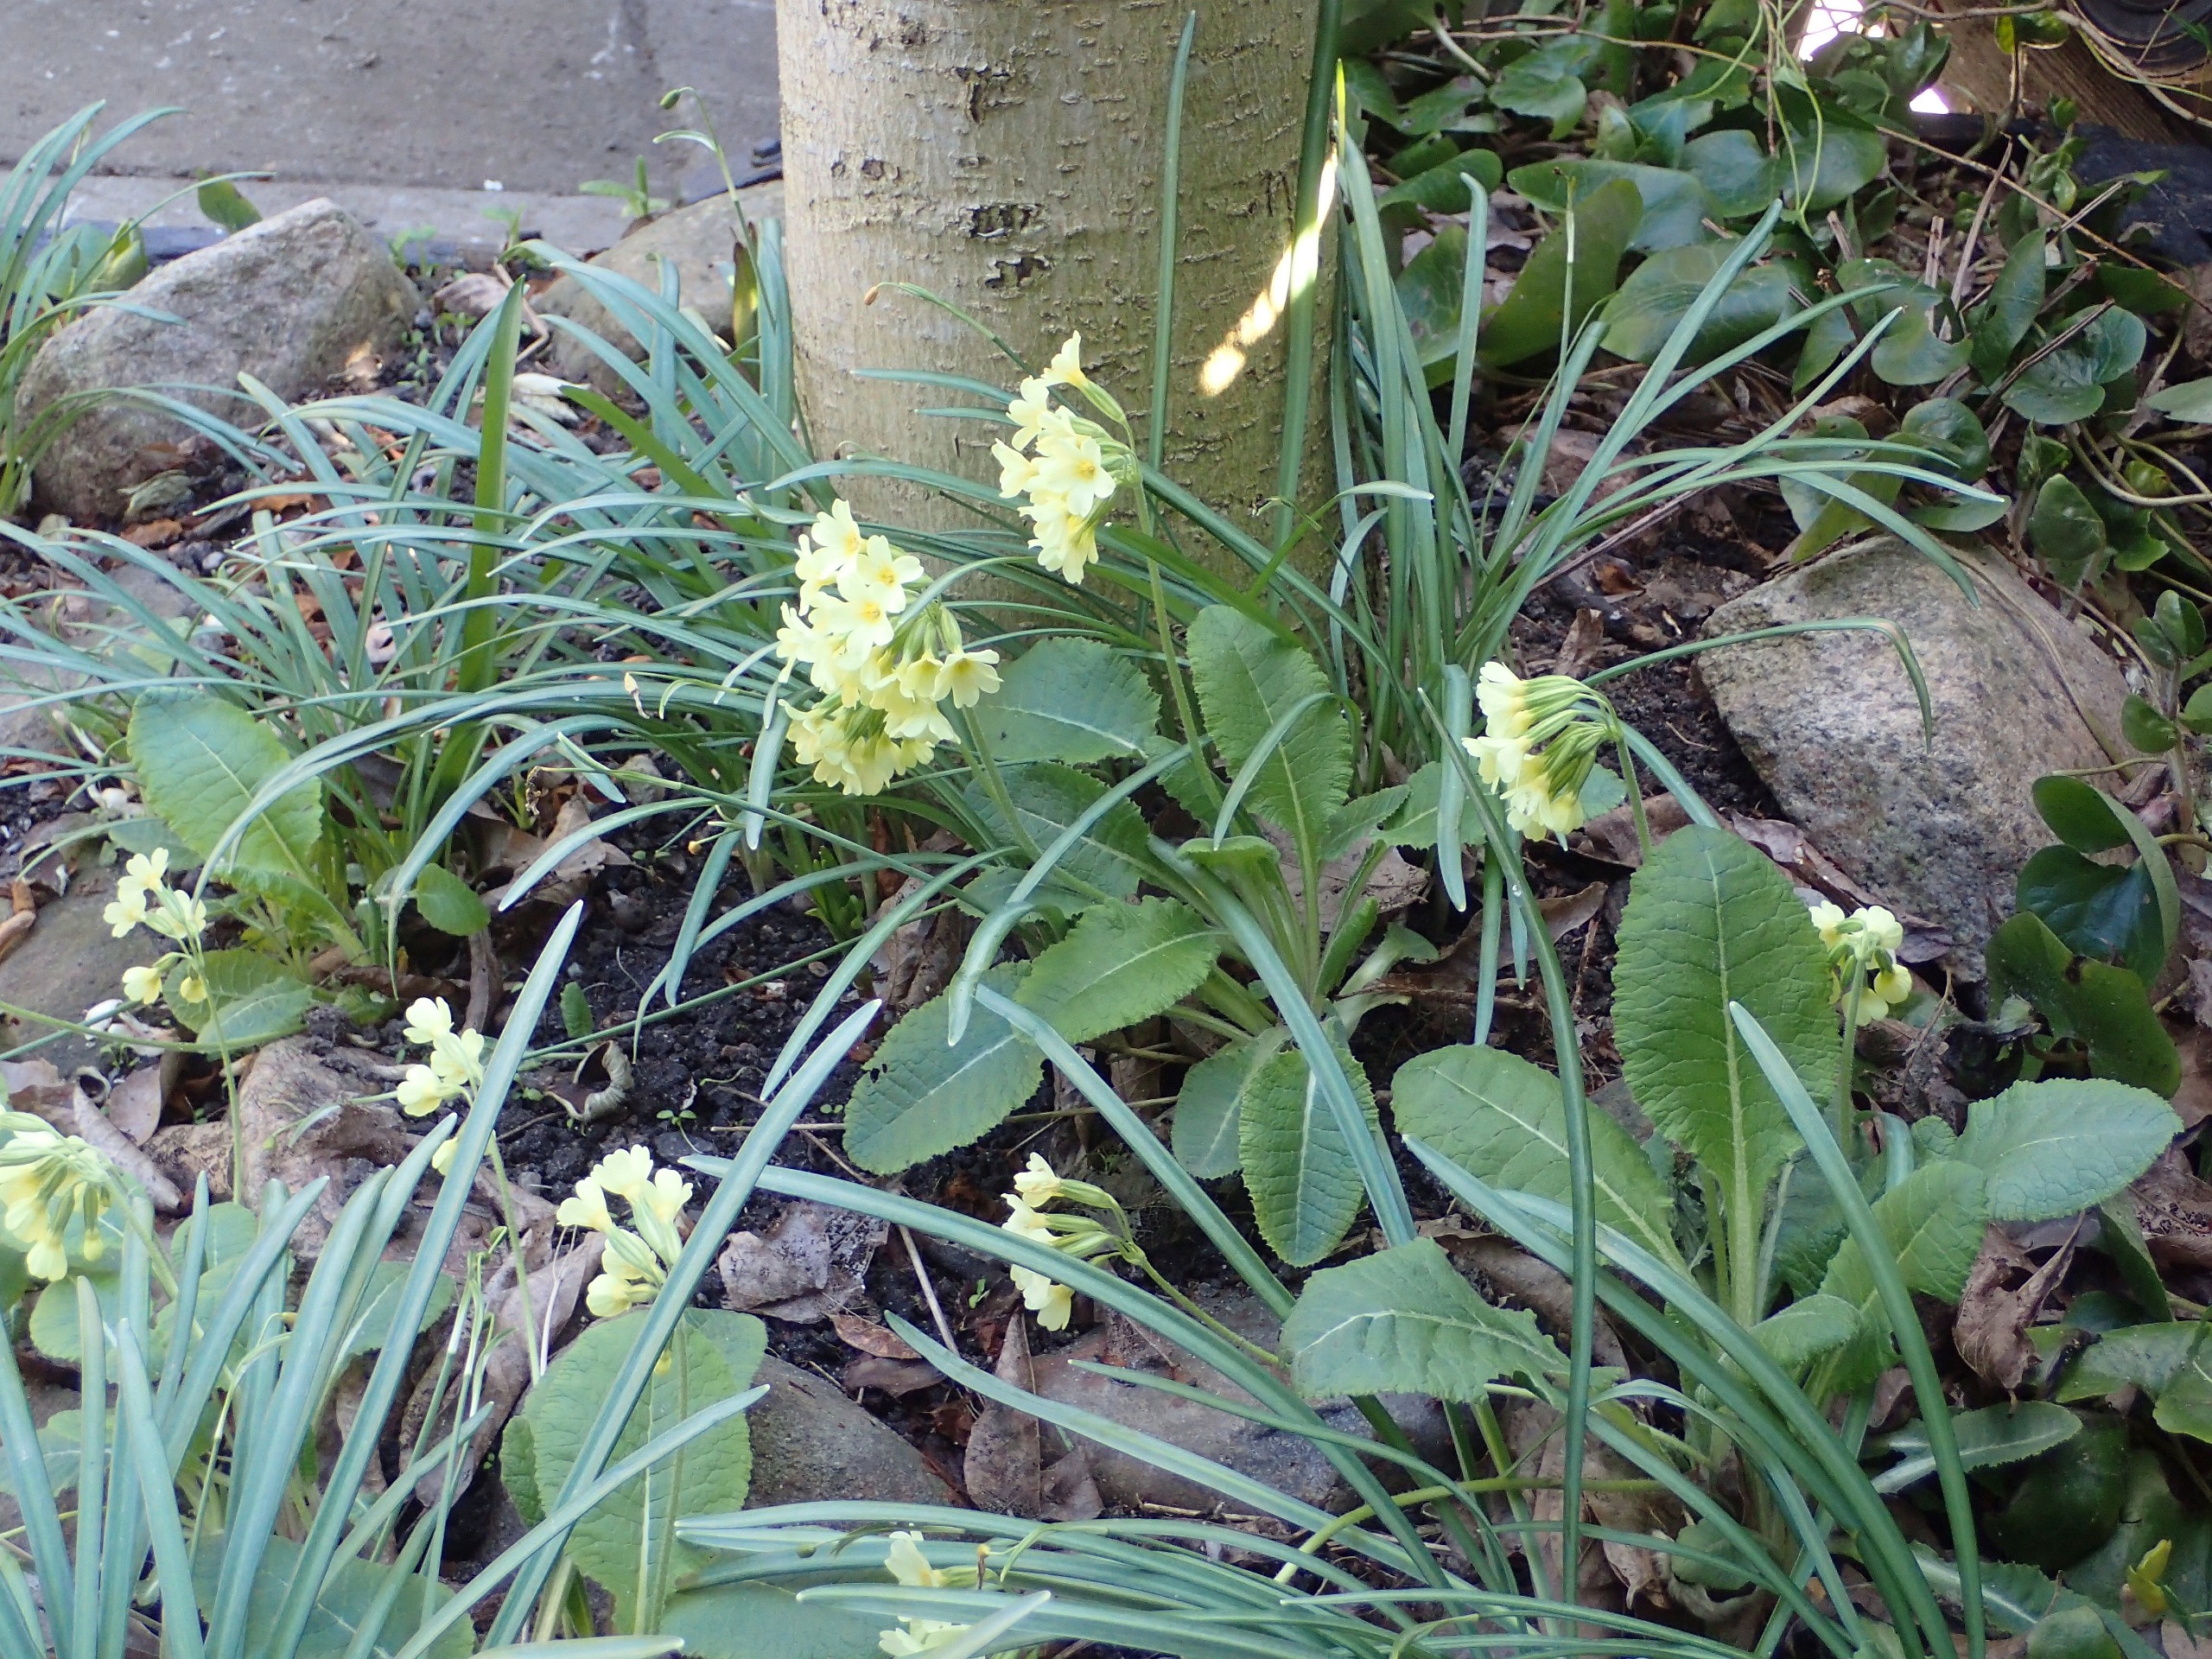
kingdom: Plantae
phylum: Tracheophyta
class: Magnoliopsida
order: Ericales
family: Primulaceae
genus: Primula
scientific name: Primula elatior
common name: Fladkravet kodriver
